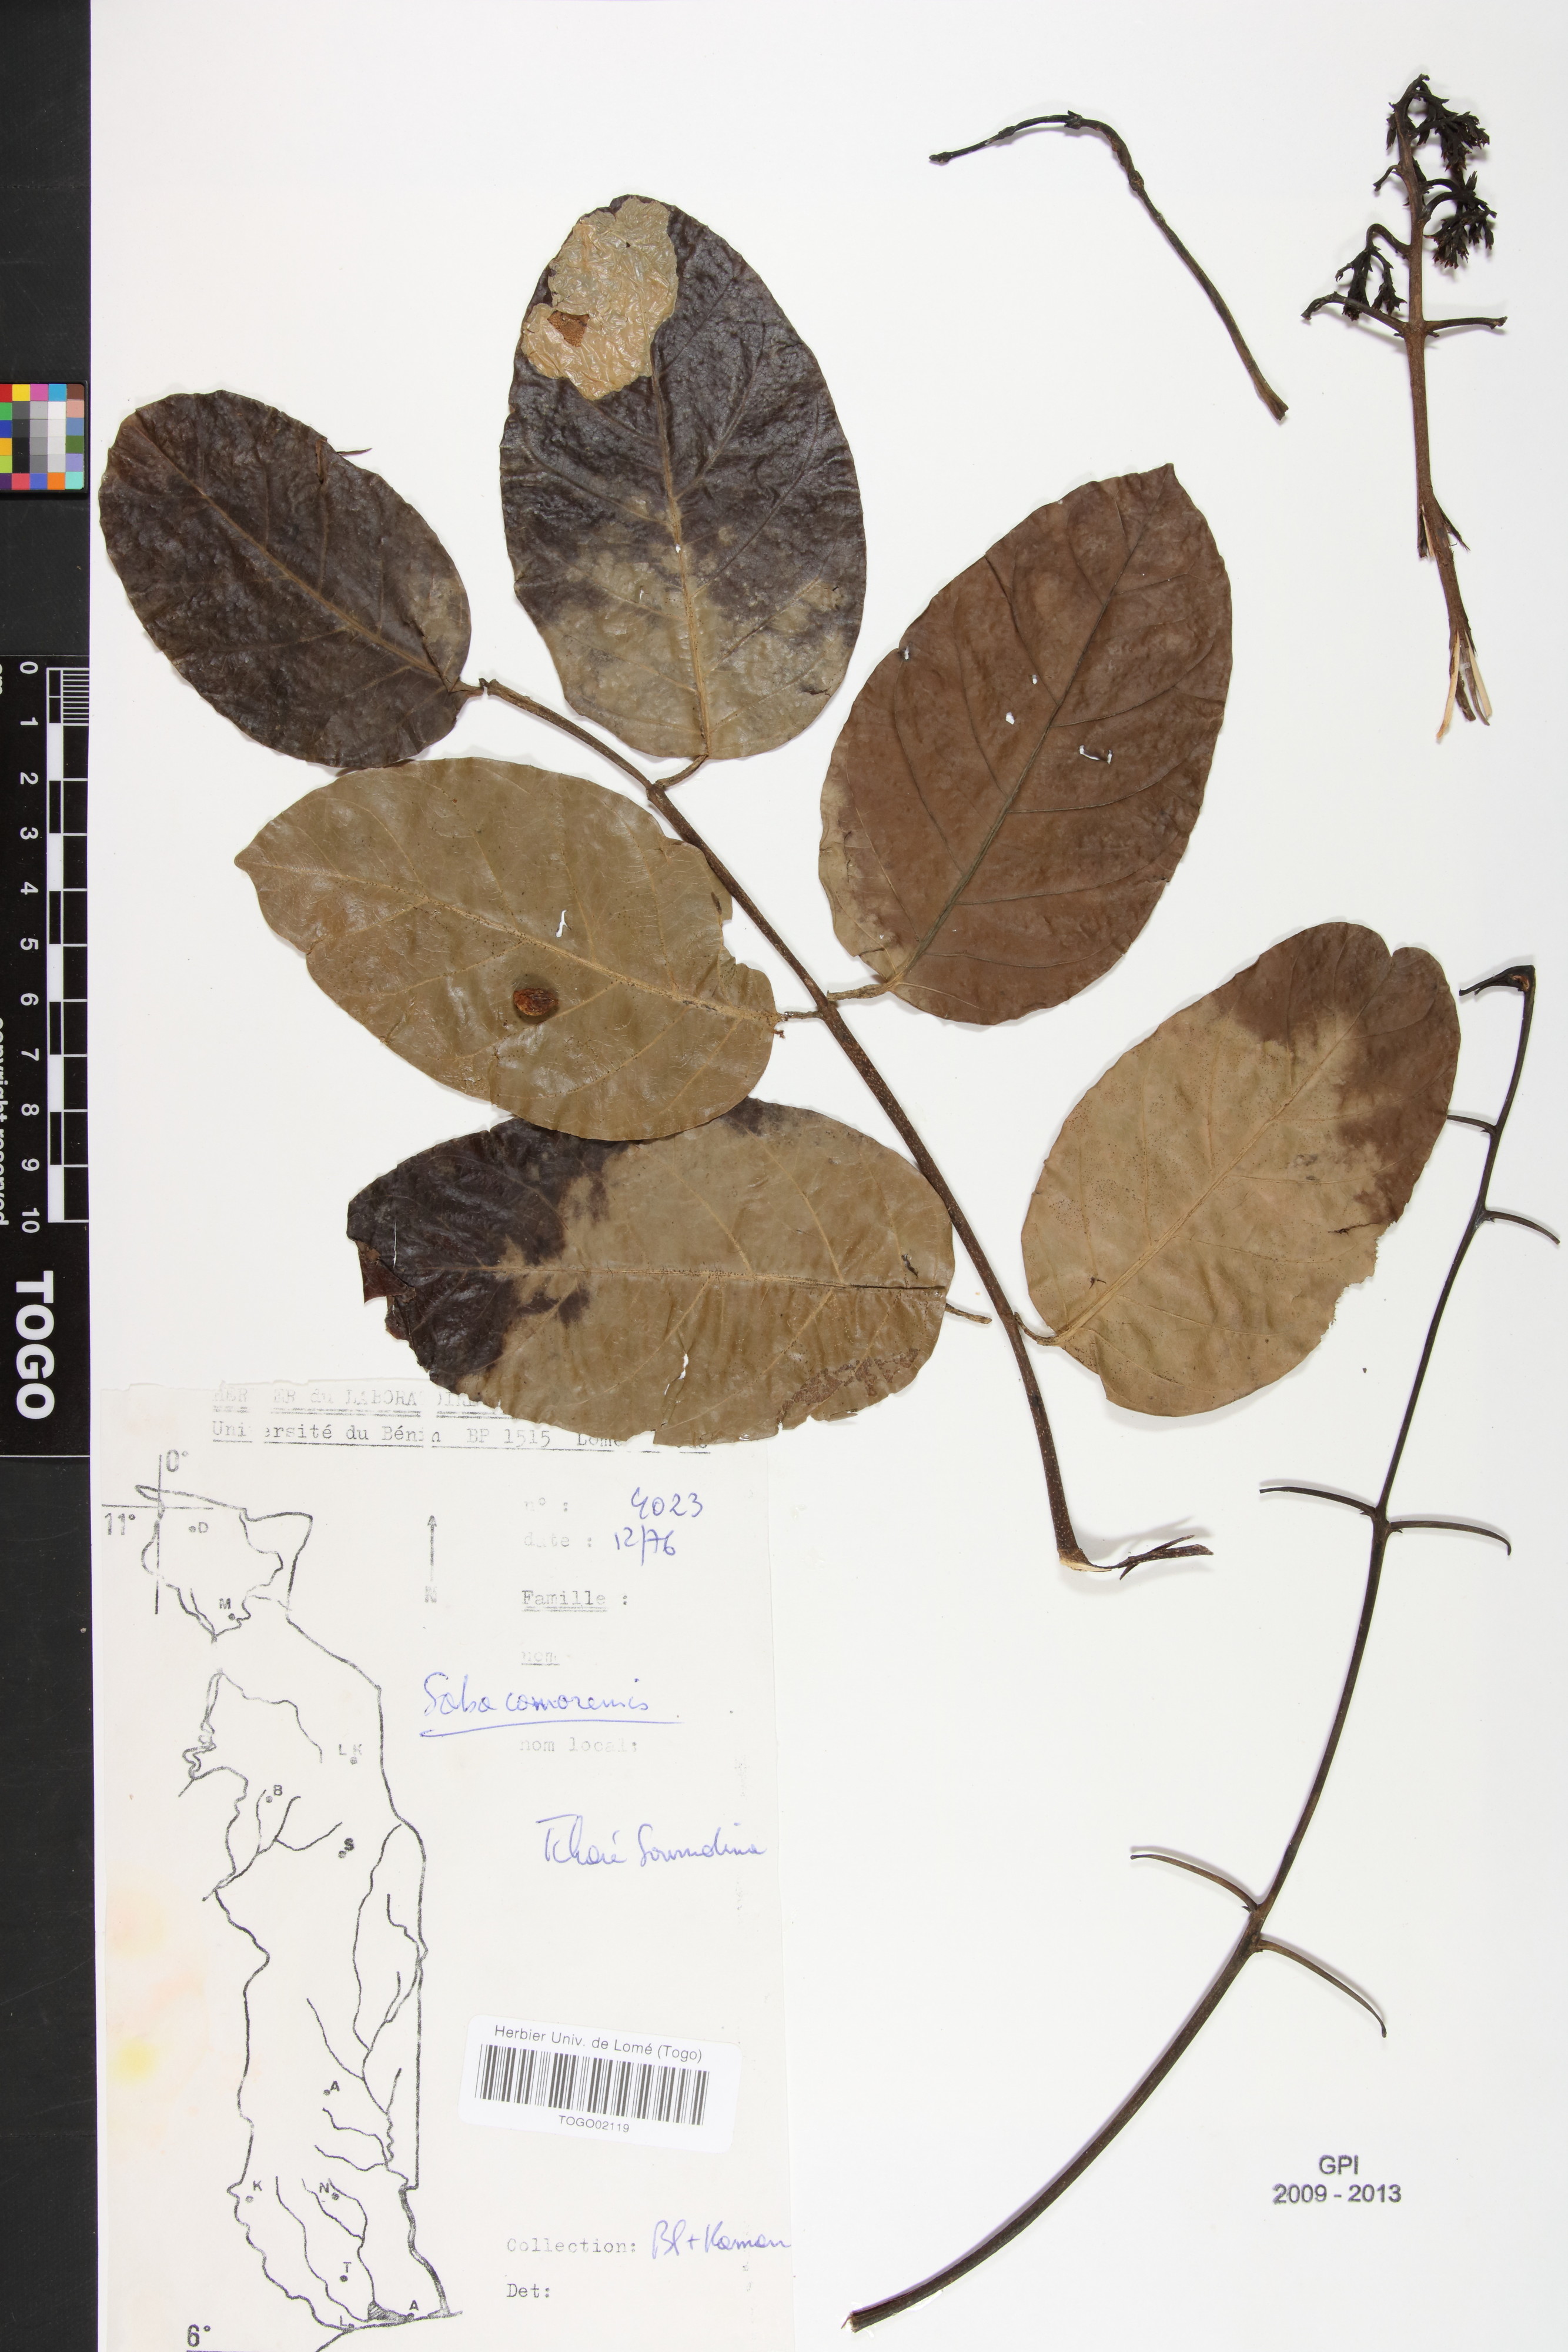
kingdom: Plantae
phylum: Tracheophyta
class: Magnoliopsida
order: Gentianales
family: Apocynaceae
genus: Saba
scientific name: Saba comorensis
